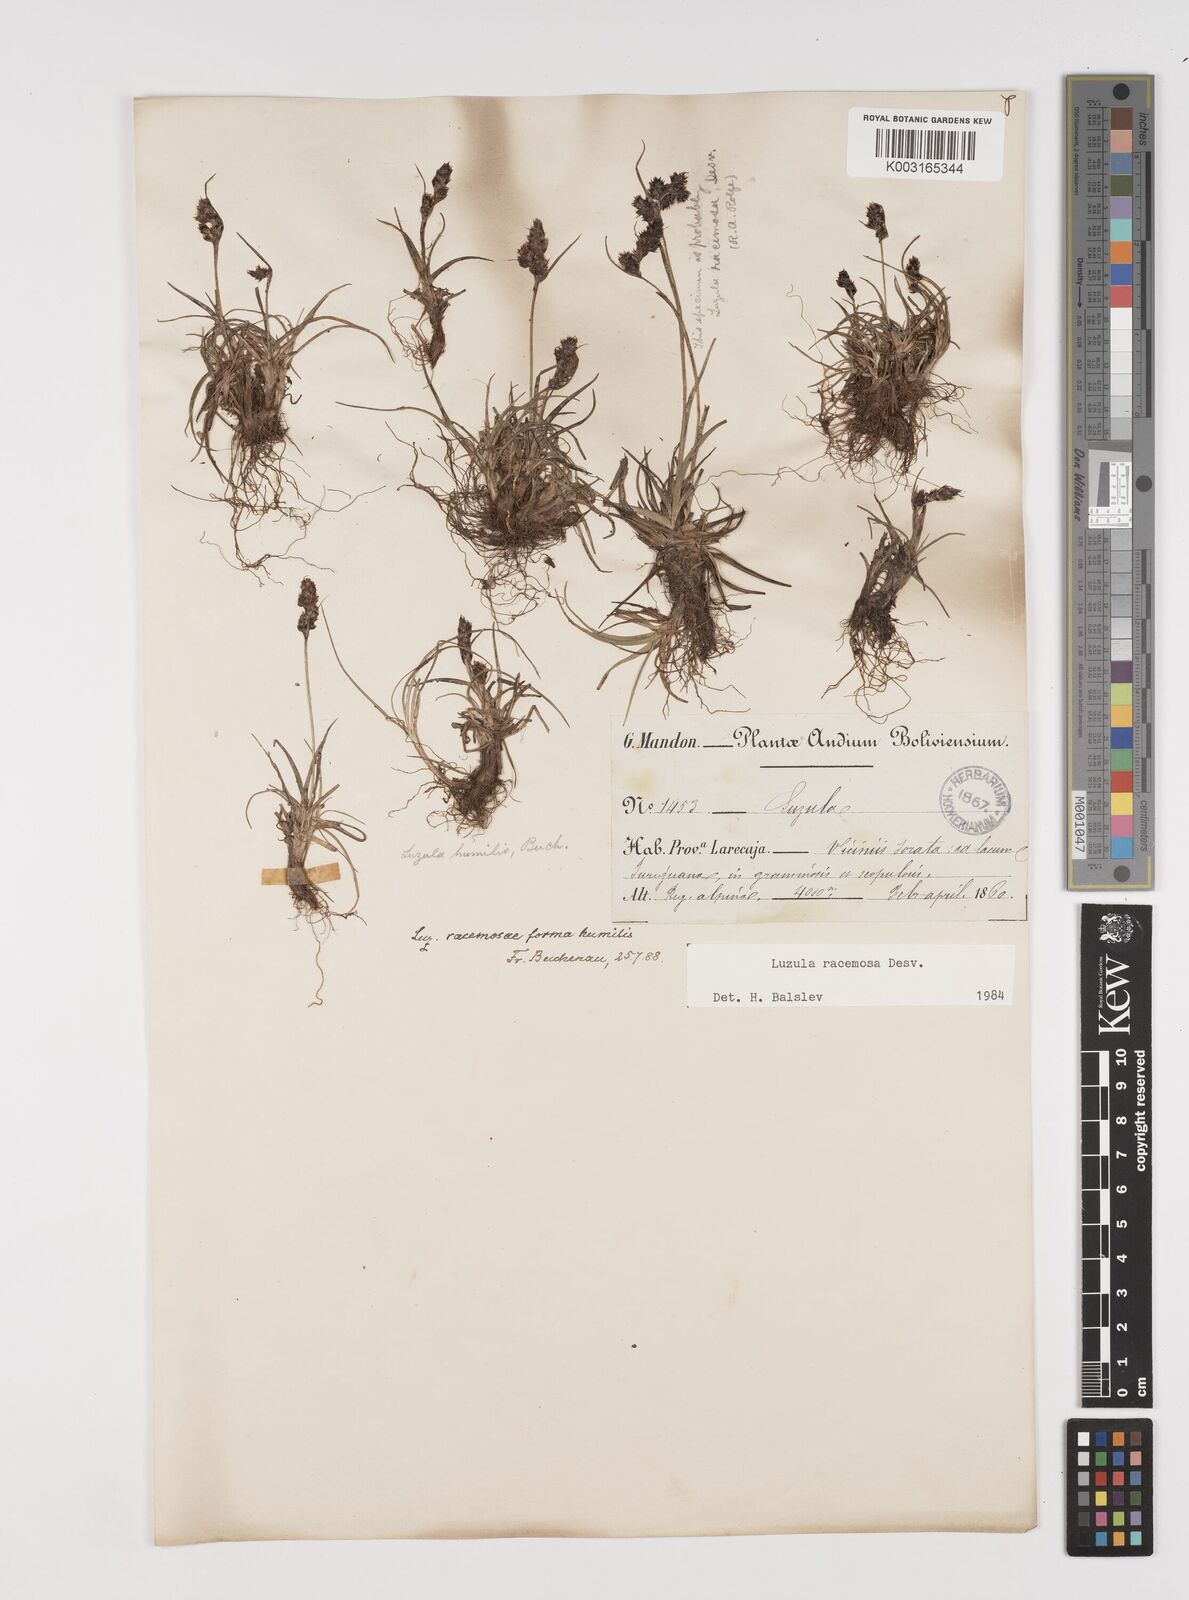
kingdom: Plantae
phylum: Tracheophyta
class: Liliopsida
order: Poales
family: Juncaceae
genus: Luzula
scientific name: Luzula racemosa
